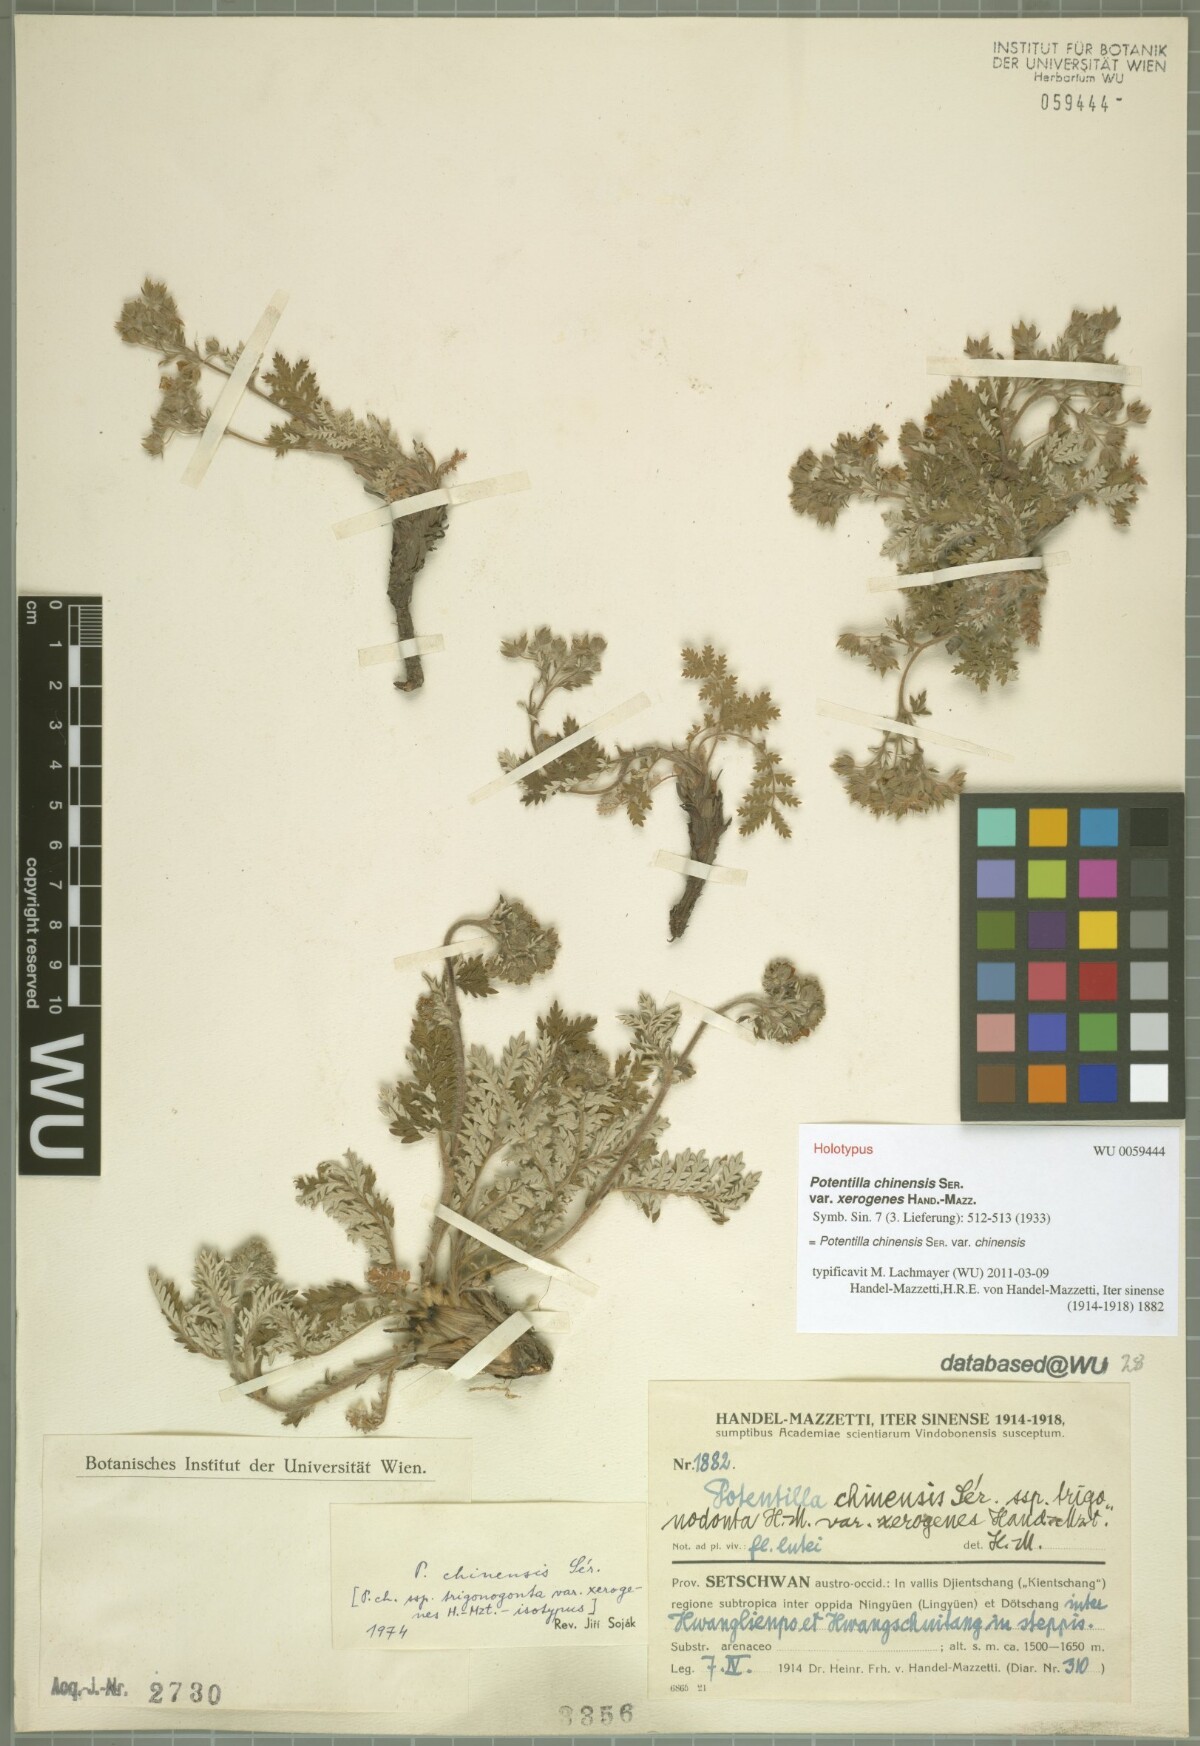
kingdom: Plantae
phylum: Tracheophyta
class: Magnoliopsida
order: Rosales
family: Rosaceae
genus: Potentilla
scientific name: Potentilla chinensis
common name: Chinese cinquefoil
